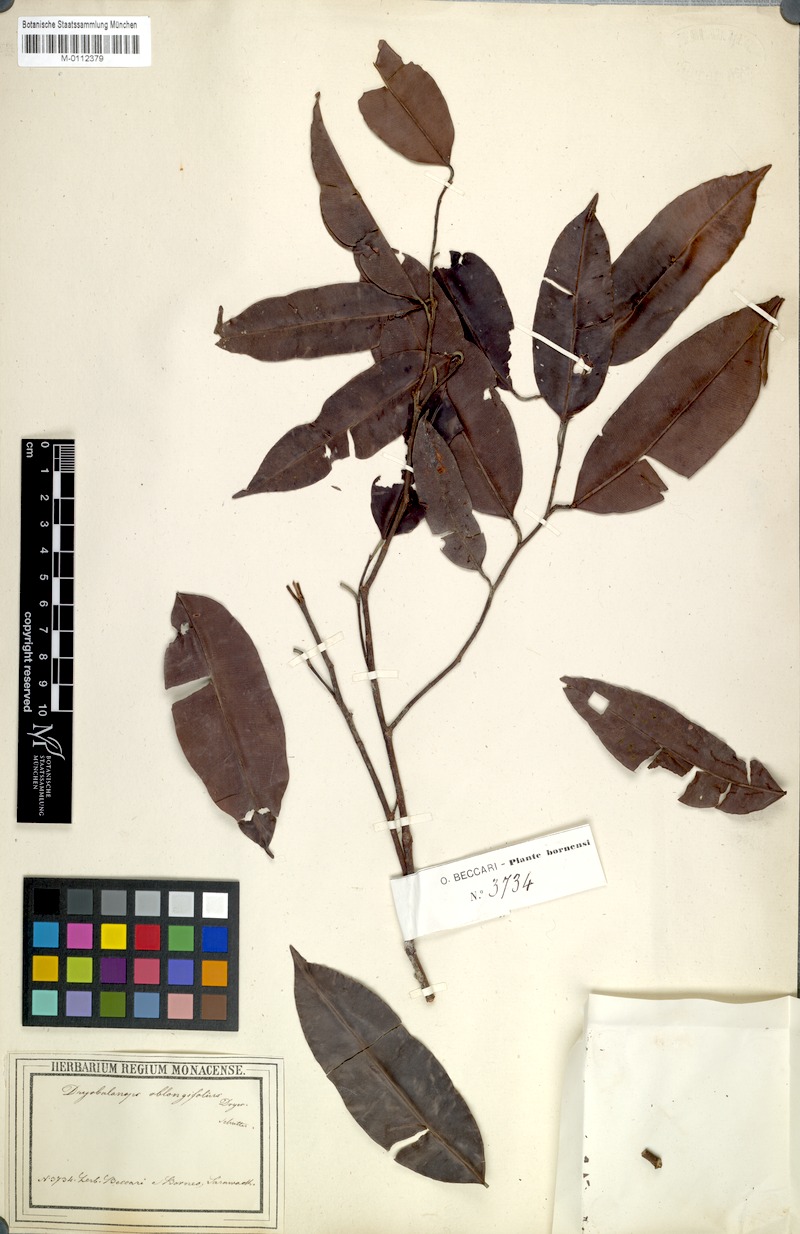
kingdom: Plantae
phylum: Tracheophyta
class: Magnoliopsida
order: Malvales
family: Dipterocarpaceae
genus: Dryobalanops
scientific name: Dryobalanops oblongifolia
